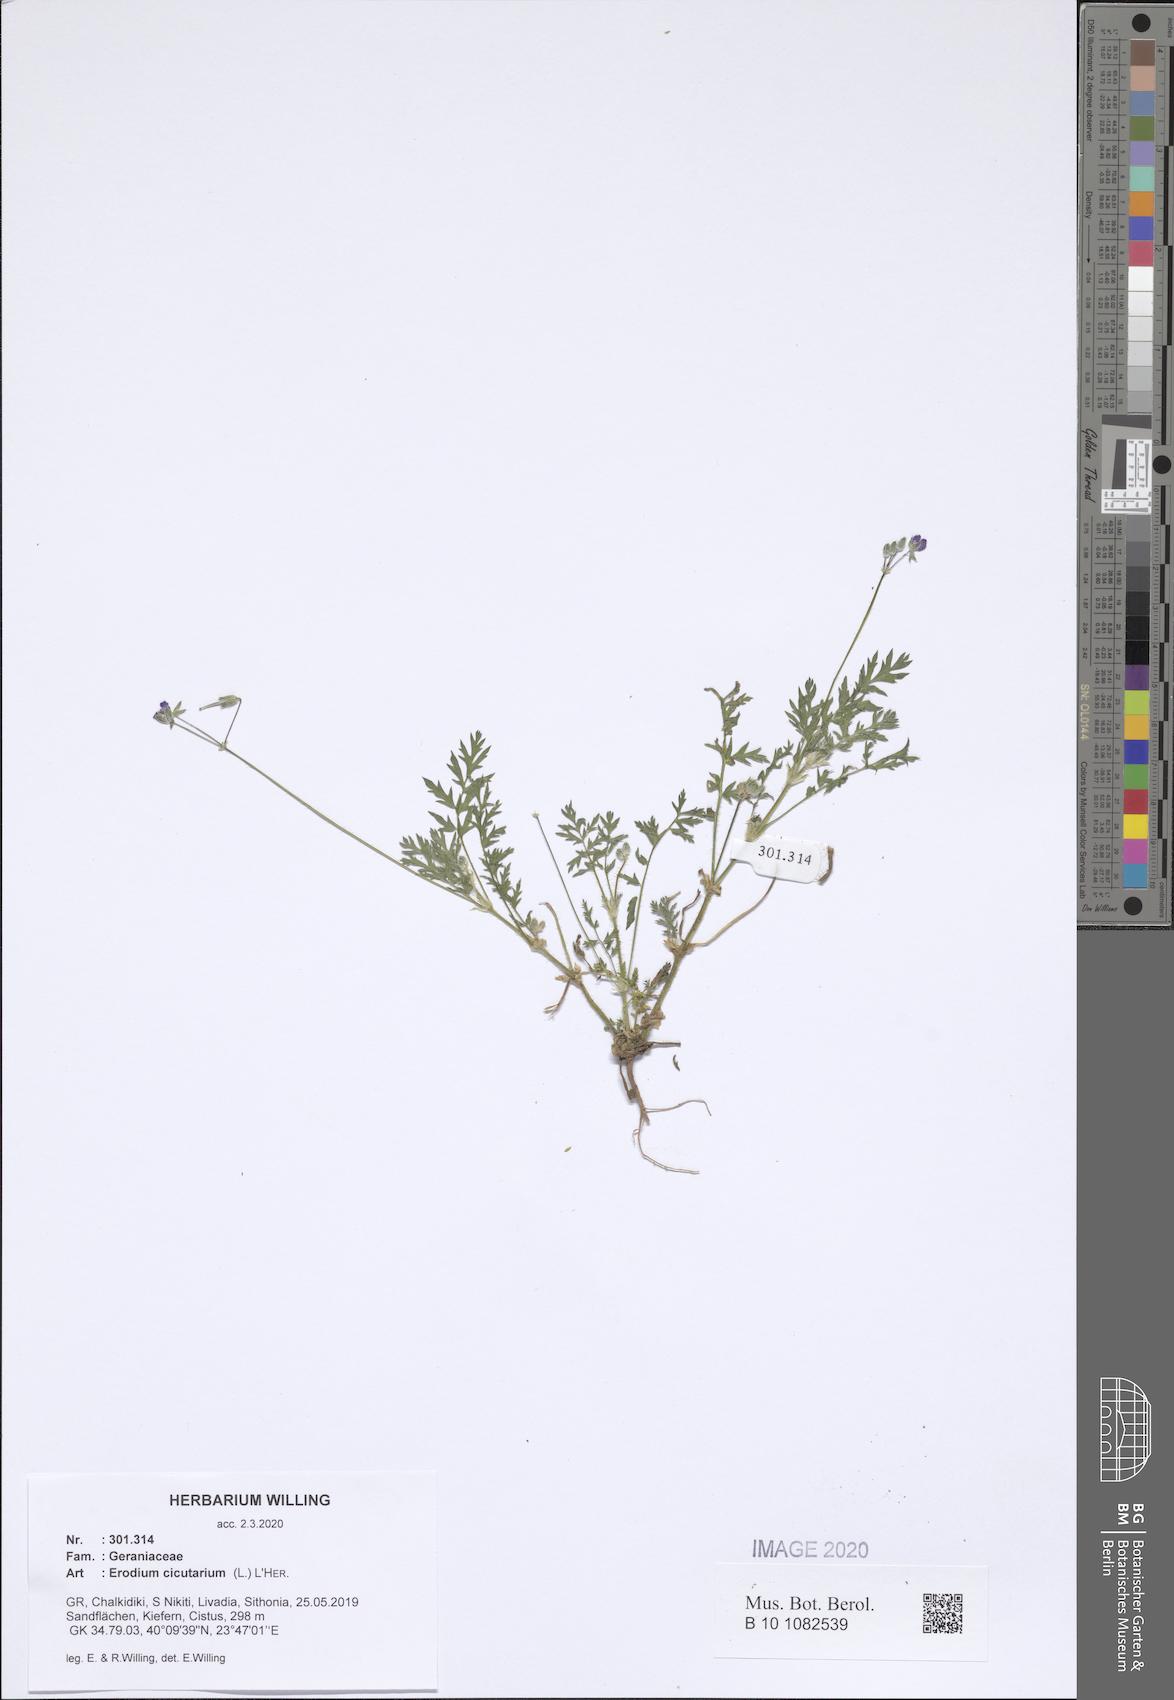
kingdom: Plantae
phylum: Tracheophyta
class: Magnoliopsida
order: Geraniales
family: Geraniaceae
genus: Erodium
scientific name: Erodium cicutarium
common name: Common stork's-bill
